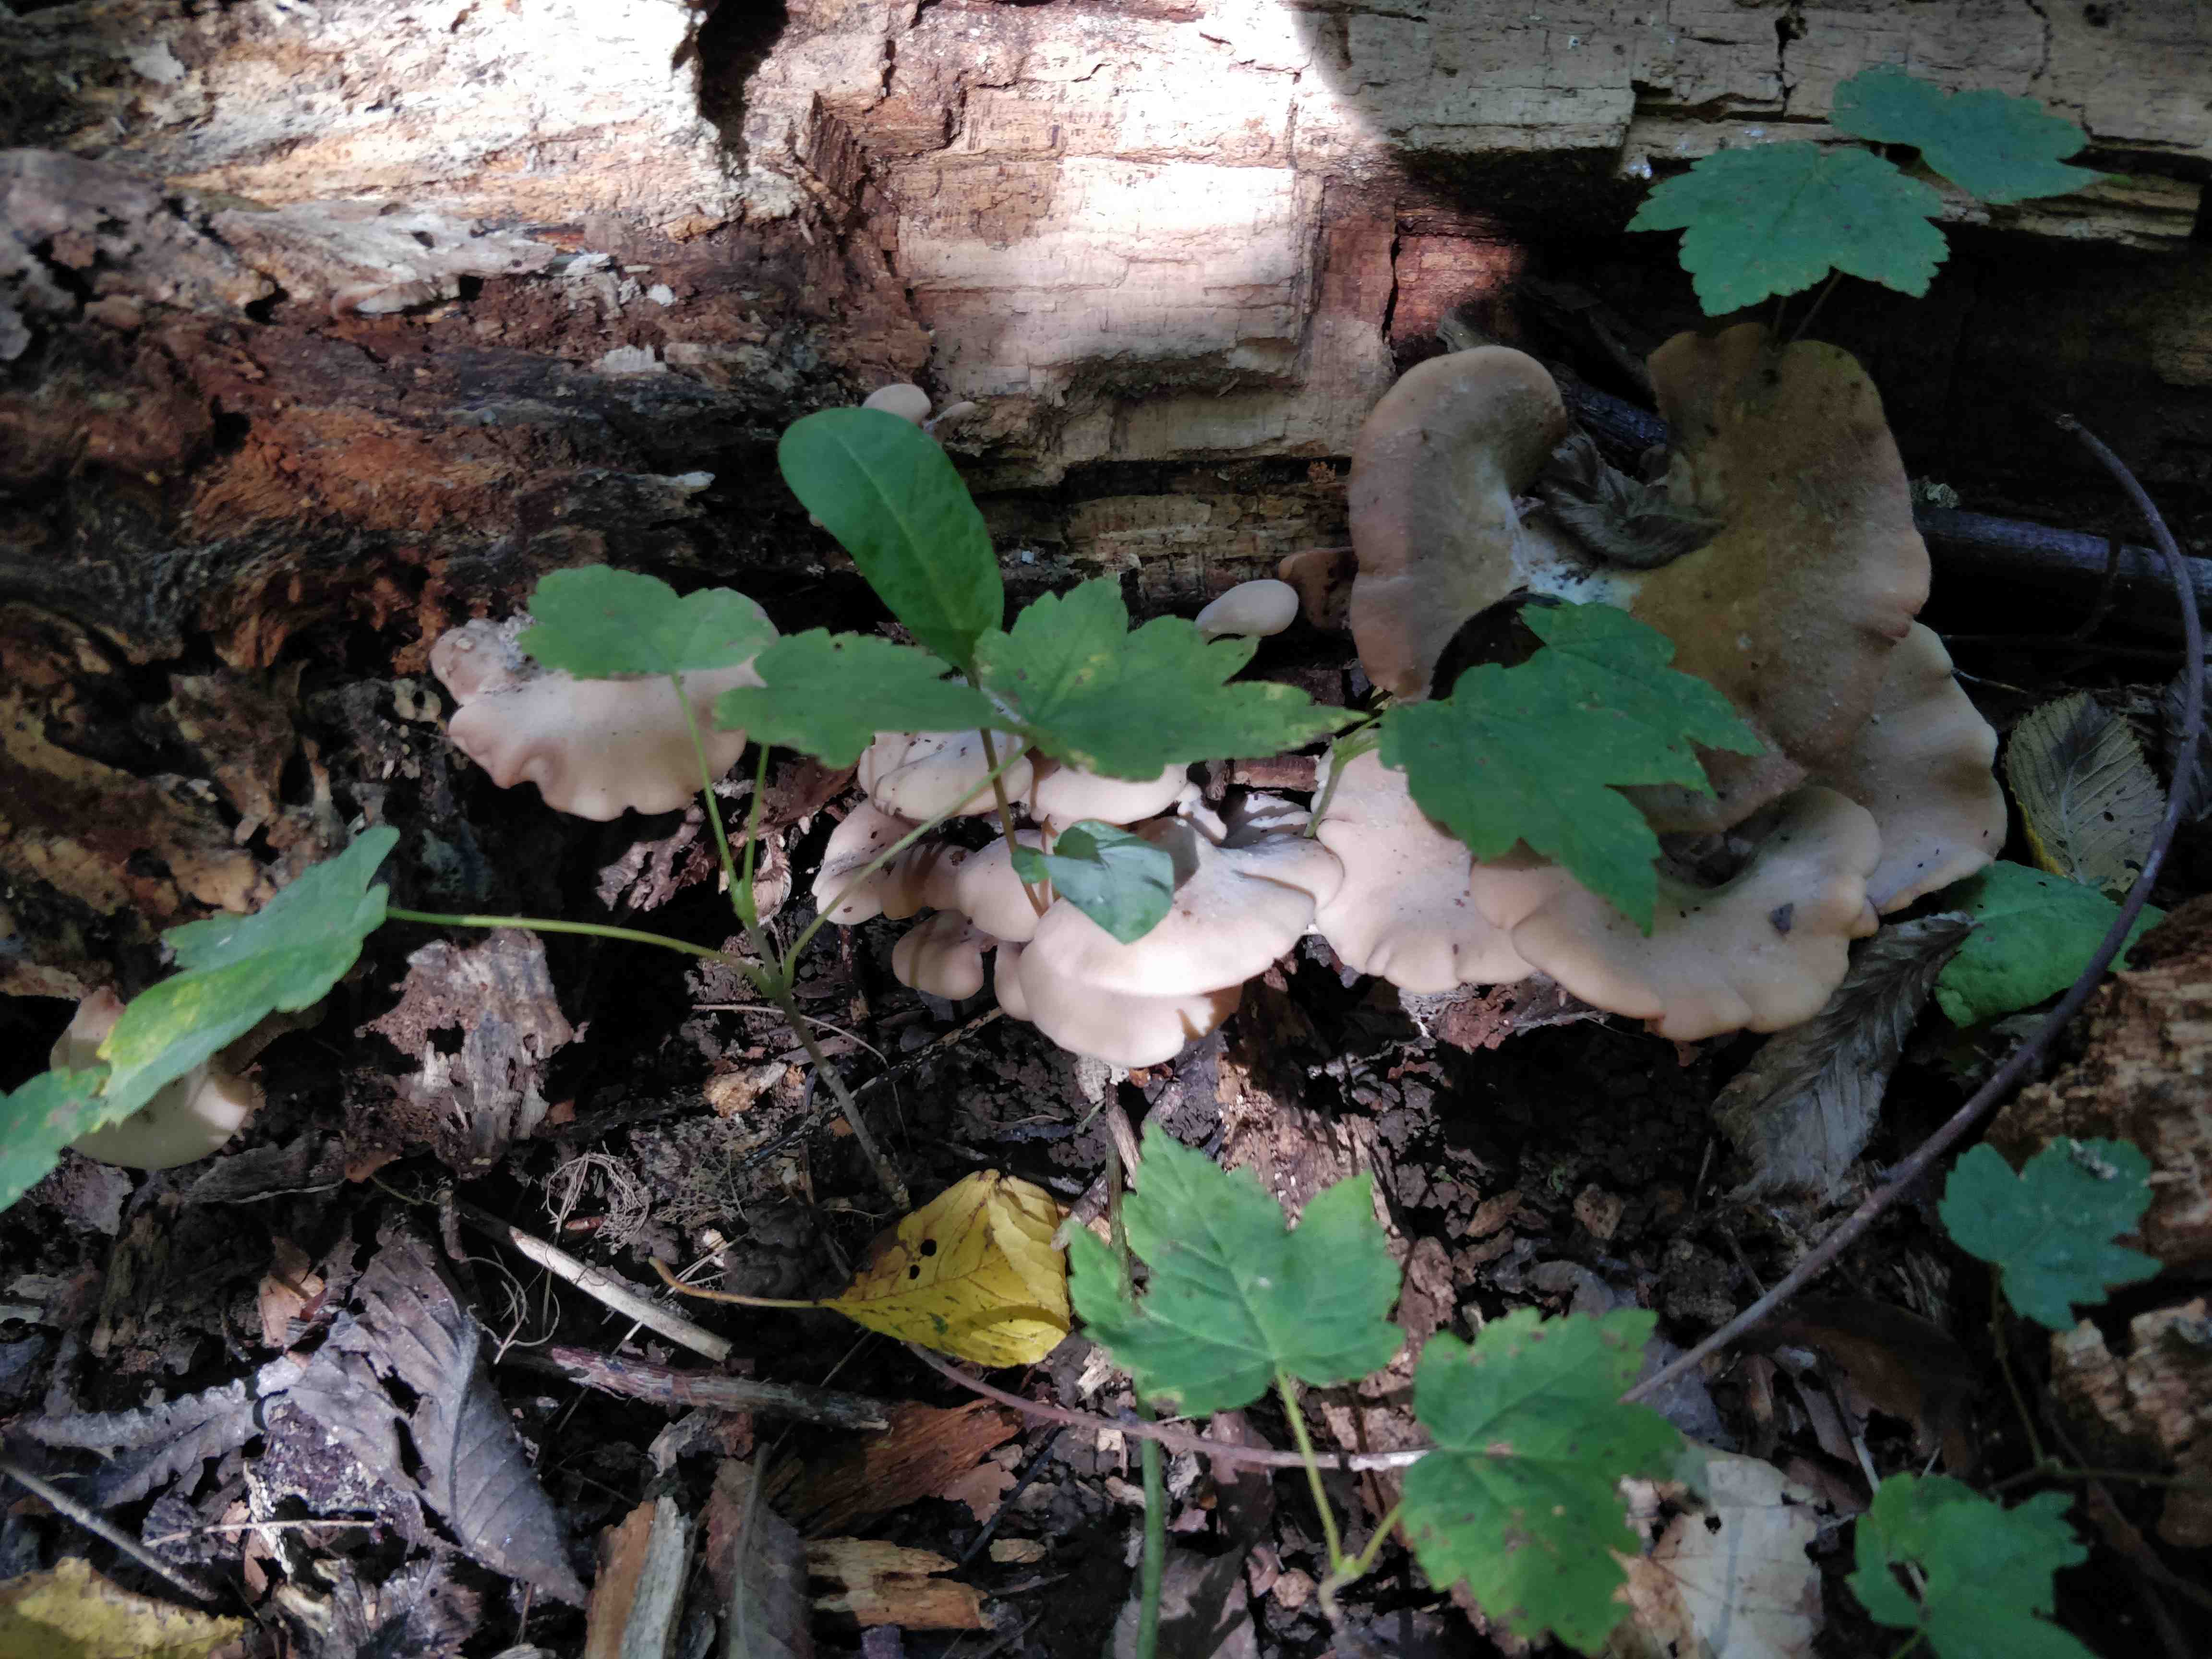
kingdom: Fungi
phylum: Basidiomycota
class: Agaricomycetes
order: Russulales
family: Auriscalpiaceae
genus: Lentinellus
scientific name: Lentinellus ursinus
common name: børstehåret savbladhat
